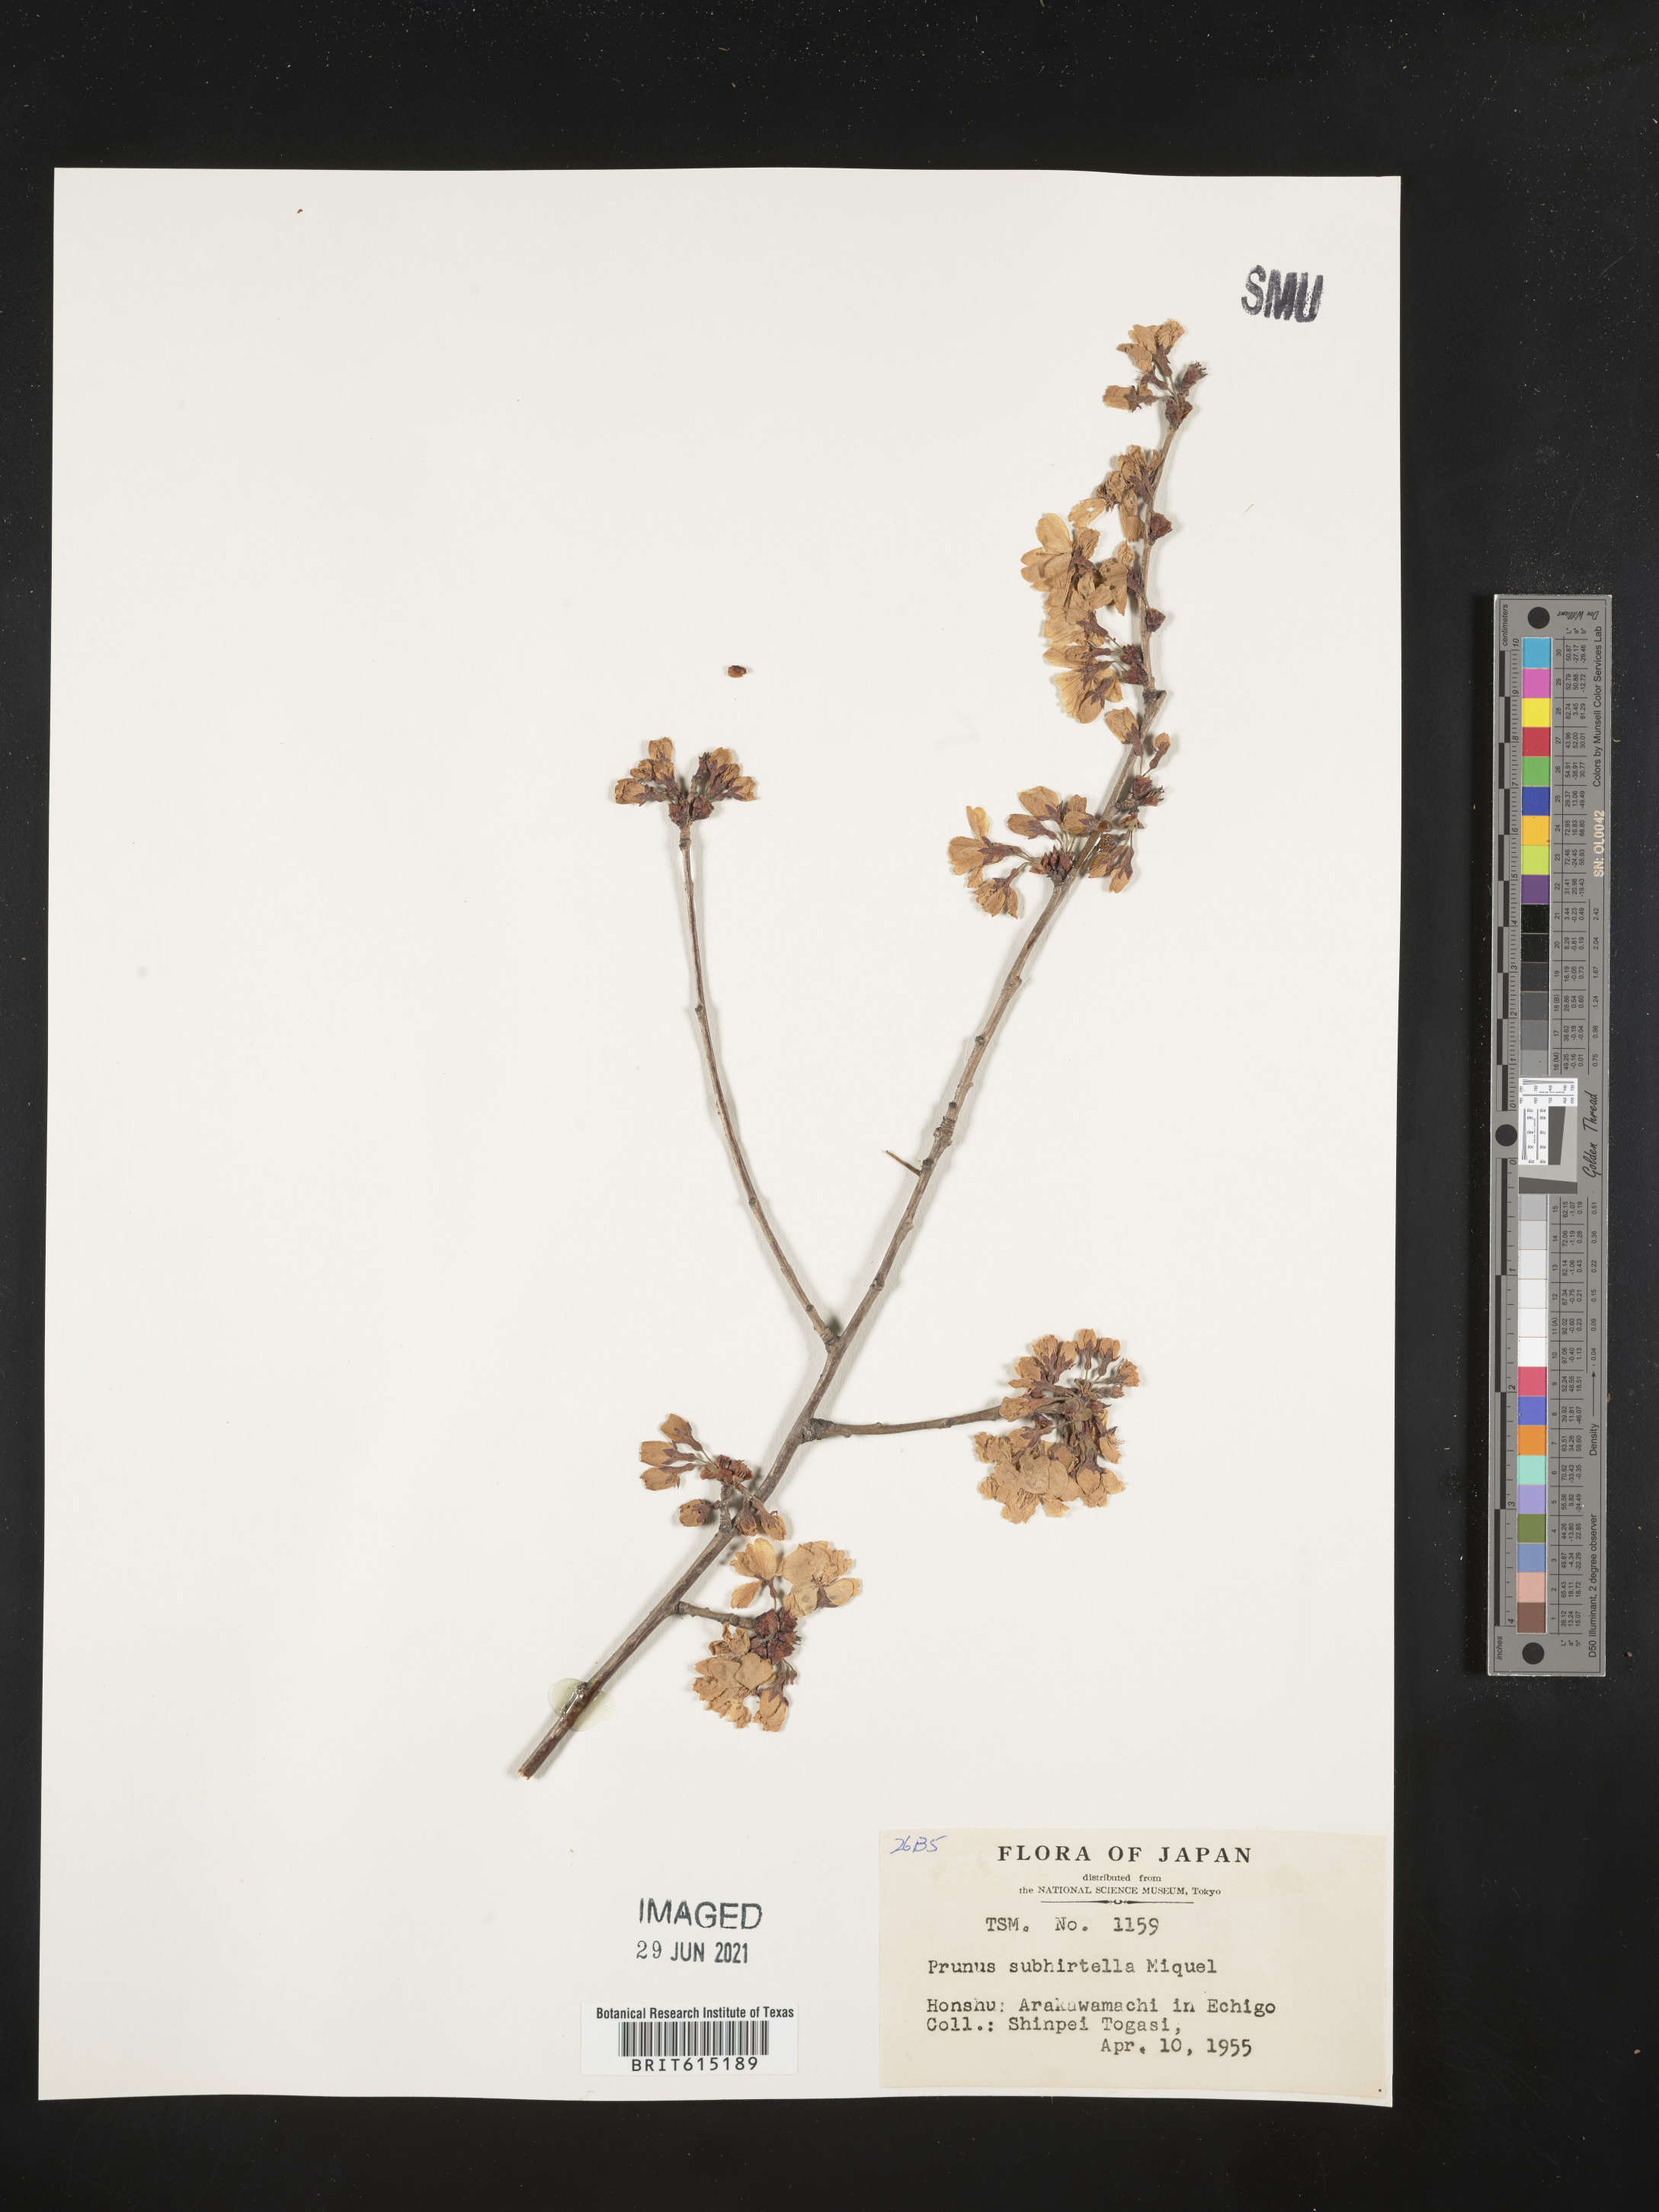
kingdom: Plantae
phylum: Tracheophyta
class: Magnoliopsida
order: Rosales
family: Rosaceae
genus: Prunus
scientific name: Prunus subhirtella
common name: Winter-flowering cherry
